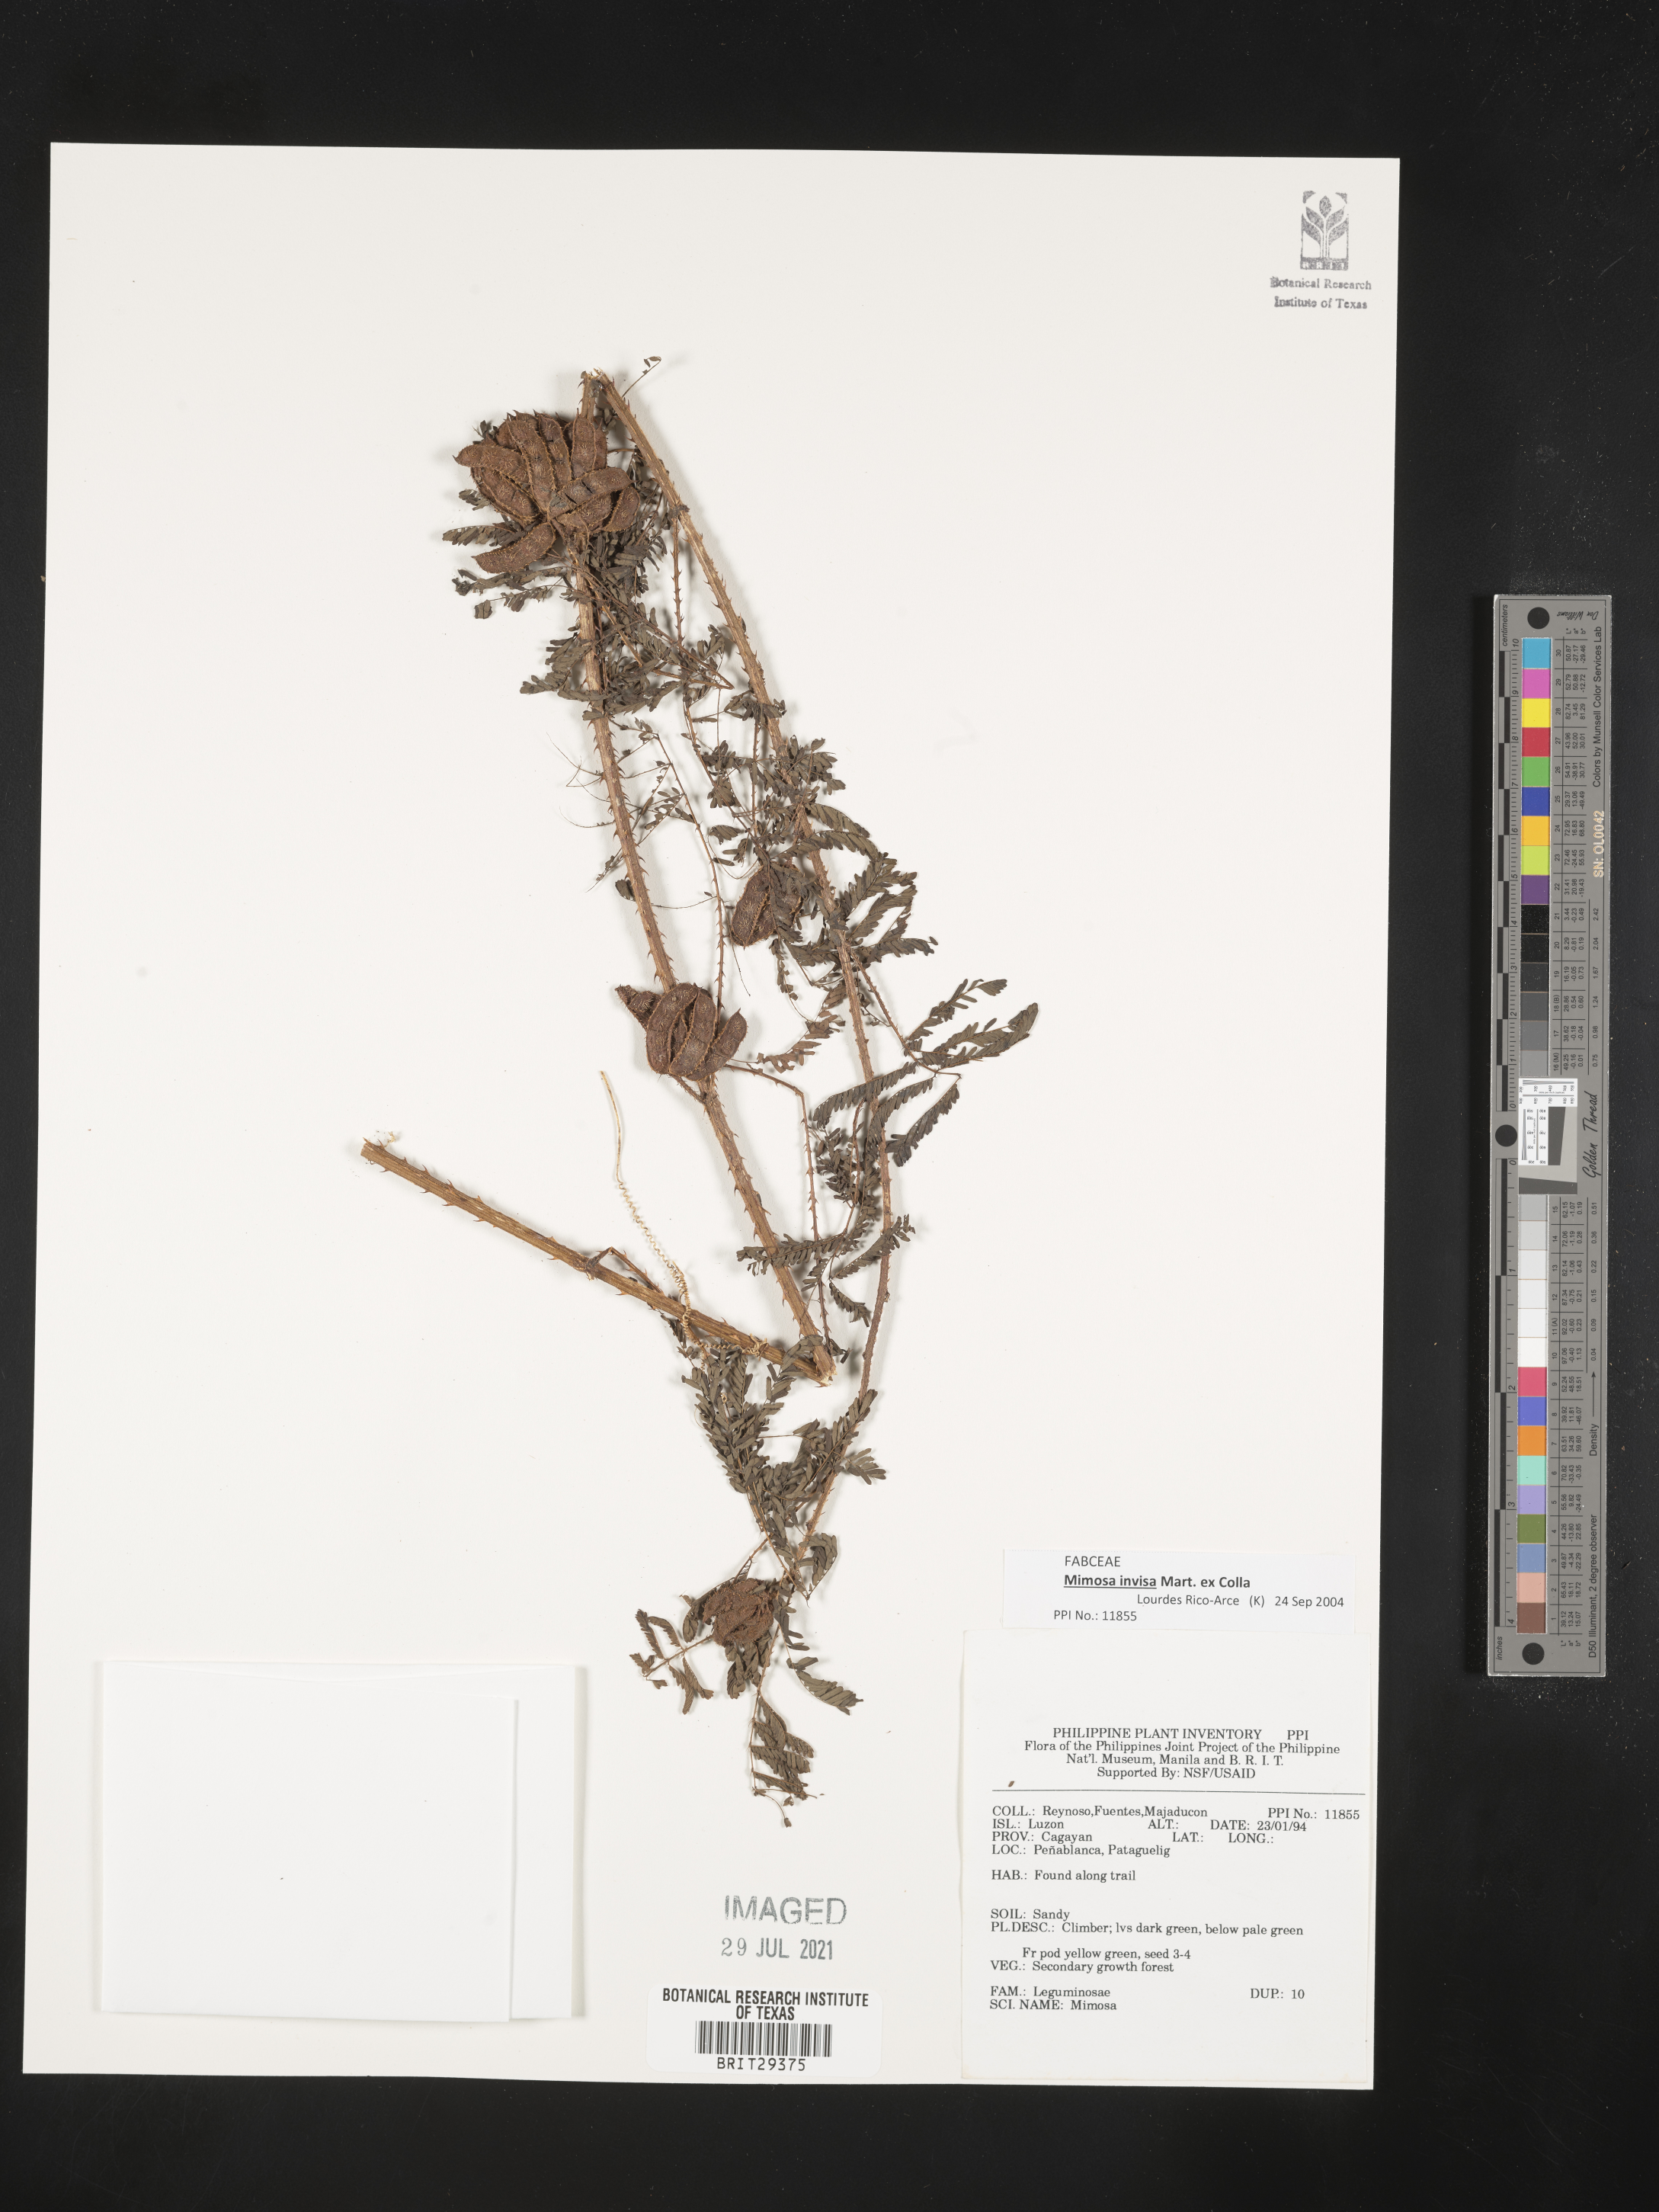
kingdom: Plantae
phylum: Tracheophyta
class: Magnoliopsida
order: Fabales
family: Fabaceae
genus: Mimosa
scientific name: Mimosa invisa
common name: Creeping sensitive-plant
